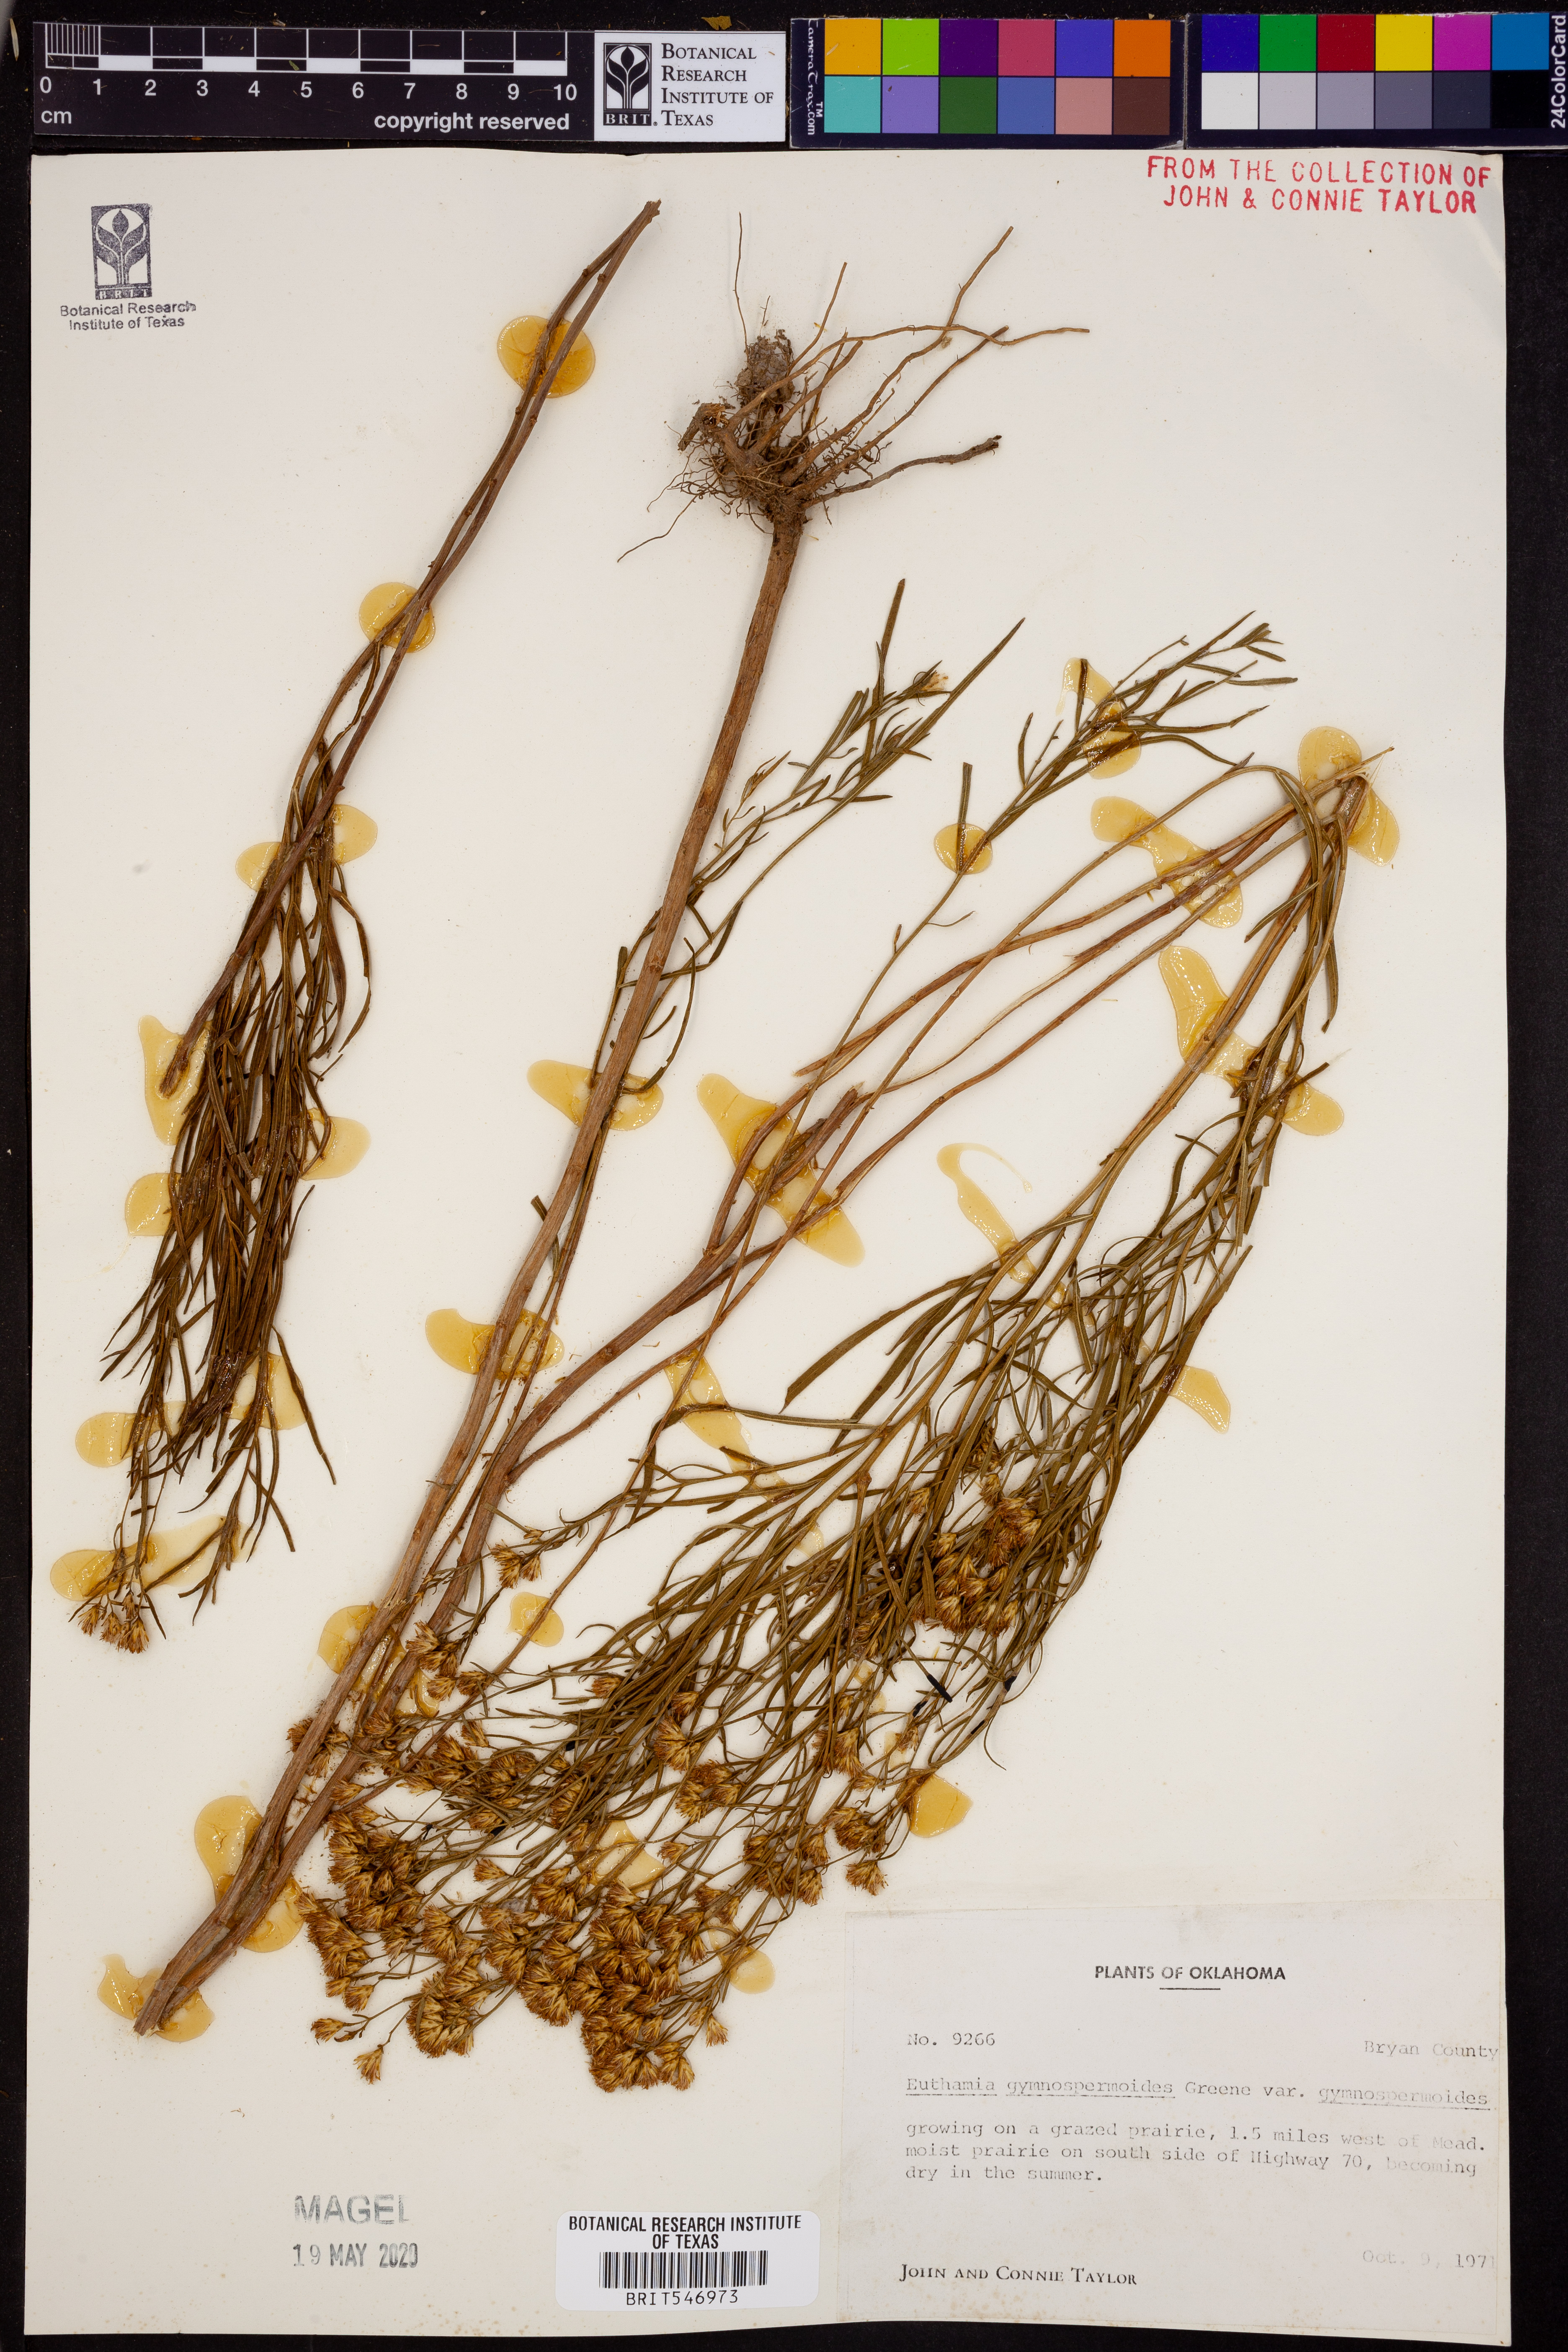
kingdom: Plantae
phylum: Tracheophyta
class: Magnoliopsida
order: Asterales
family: Asteraceae
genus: Euthamia
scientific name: Euthamia gymnospermoides
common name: Great plains goldentop
